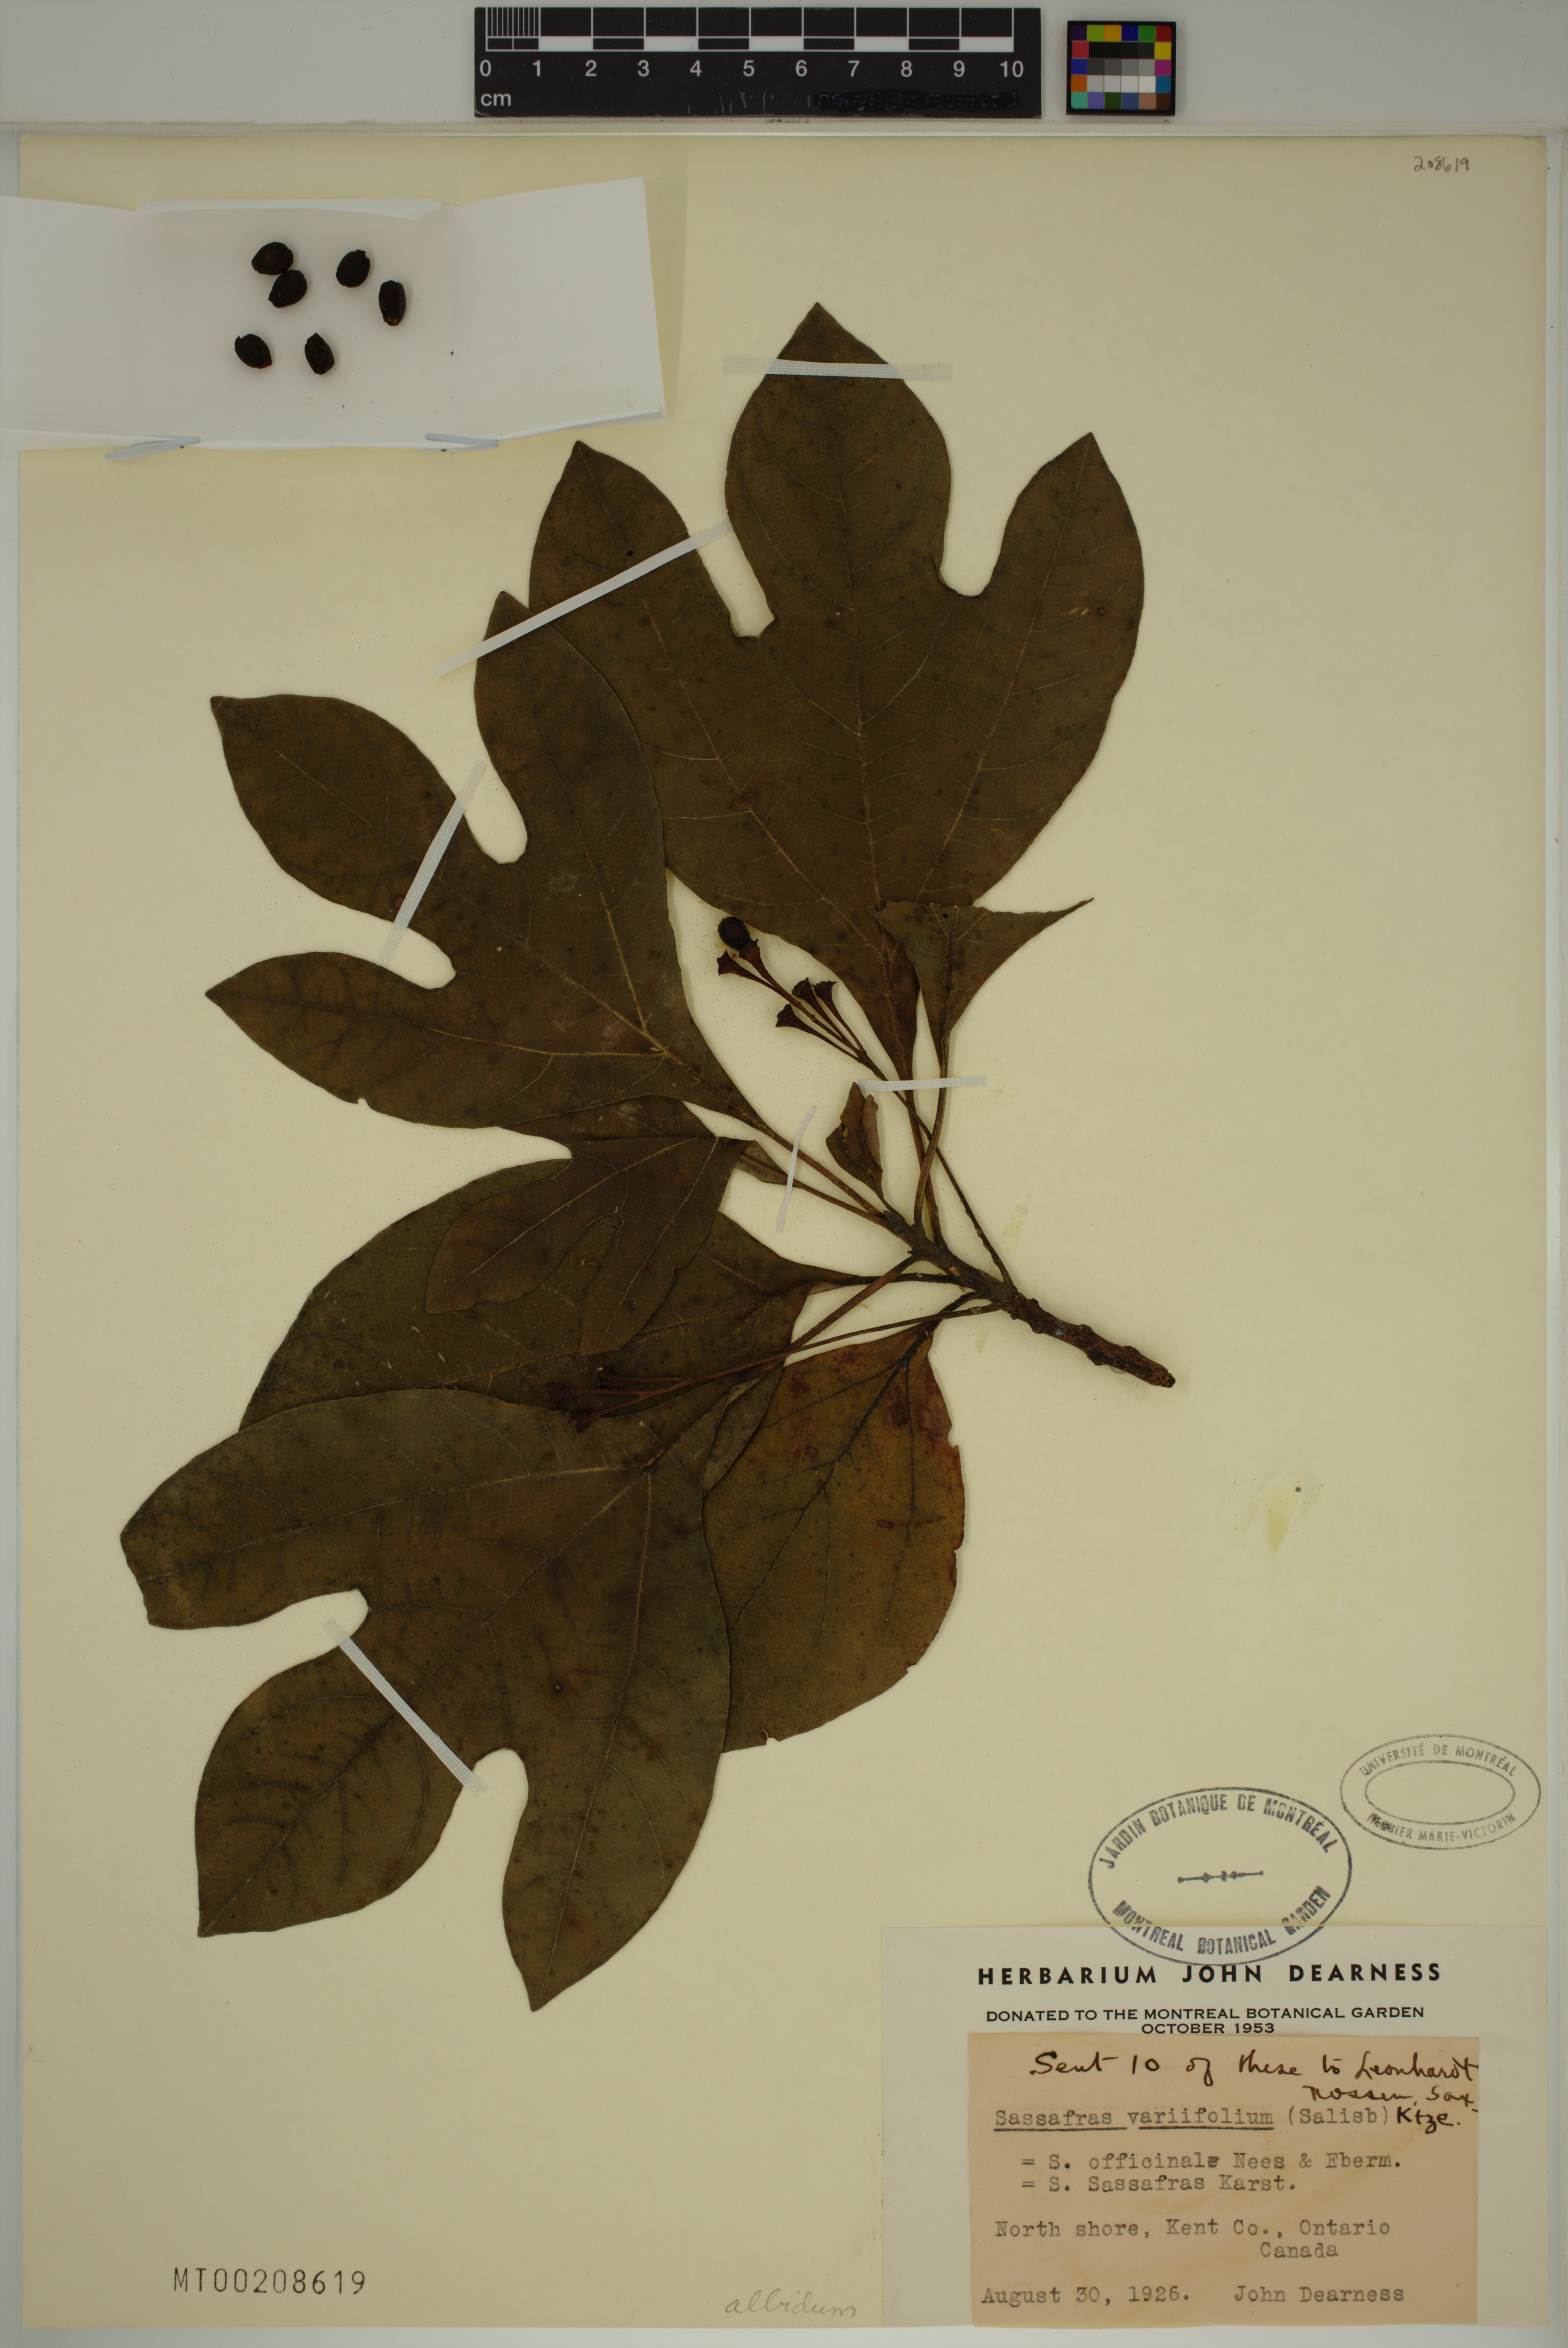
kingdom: Plantae
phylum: Tracheophyta
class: Magnoliopsida
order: Laurales
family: Lauraceae
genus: Sassafras
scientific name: Sassafras albidum
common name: Sassafras
